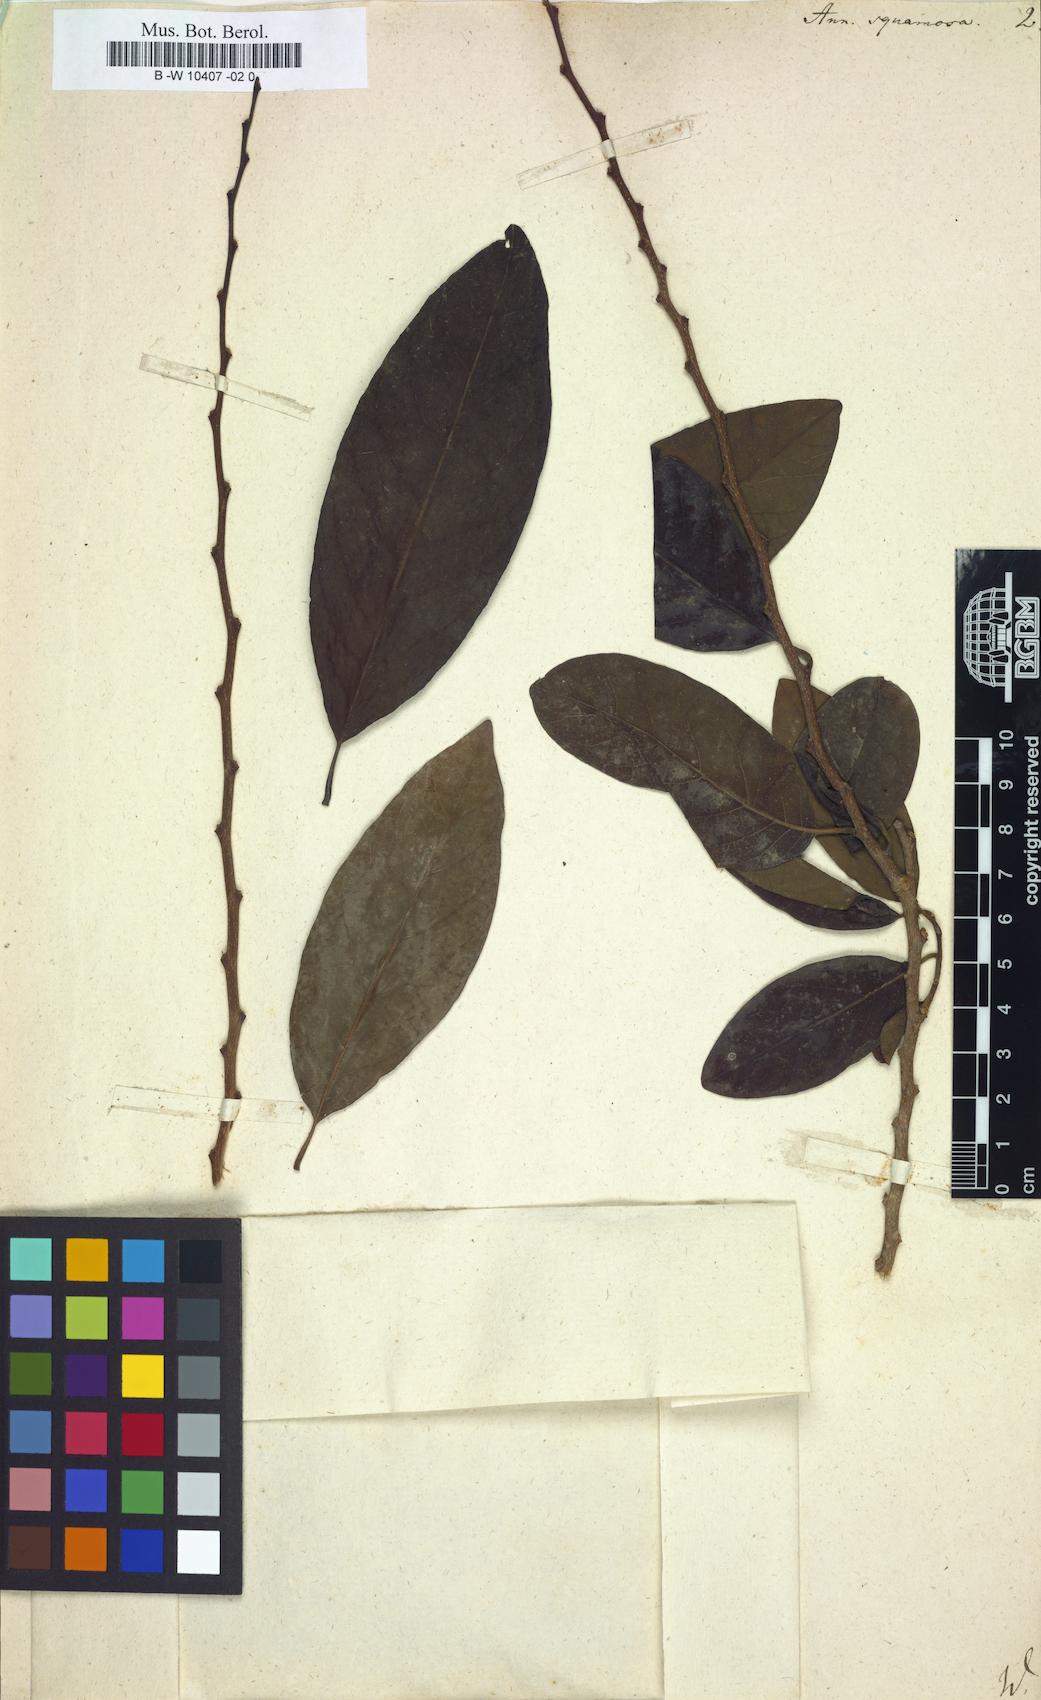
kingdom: Plantae
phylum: Tracheophyta
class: Magnoliopsida
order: Magnoliales
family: Annonaceae
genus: Annona
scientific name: Annona squamosa
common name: Custard-apple
